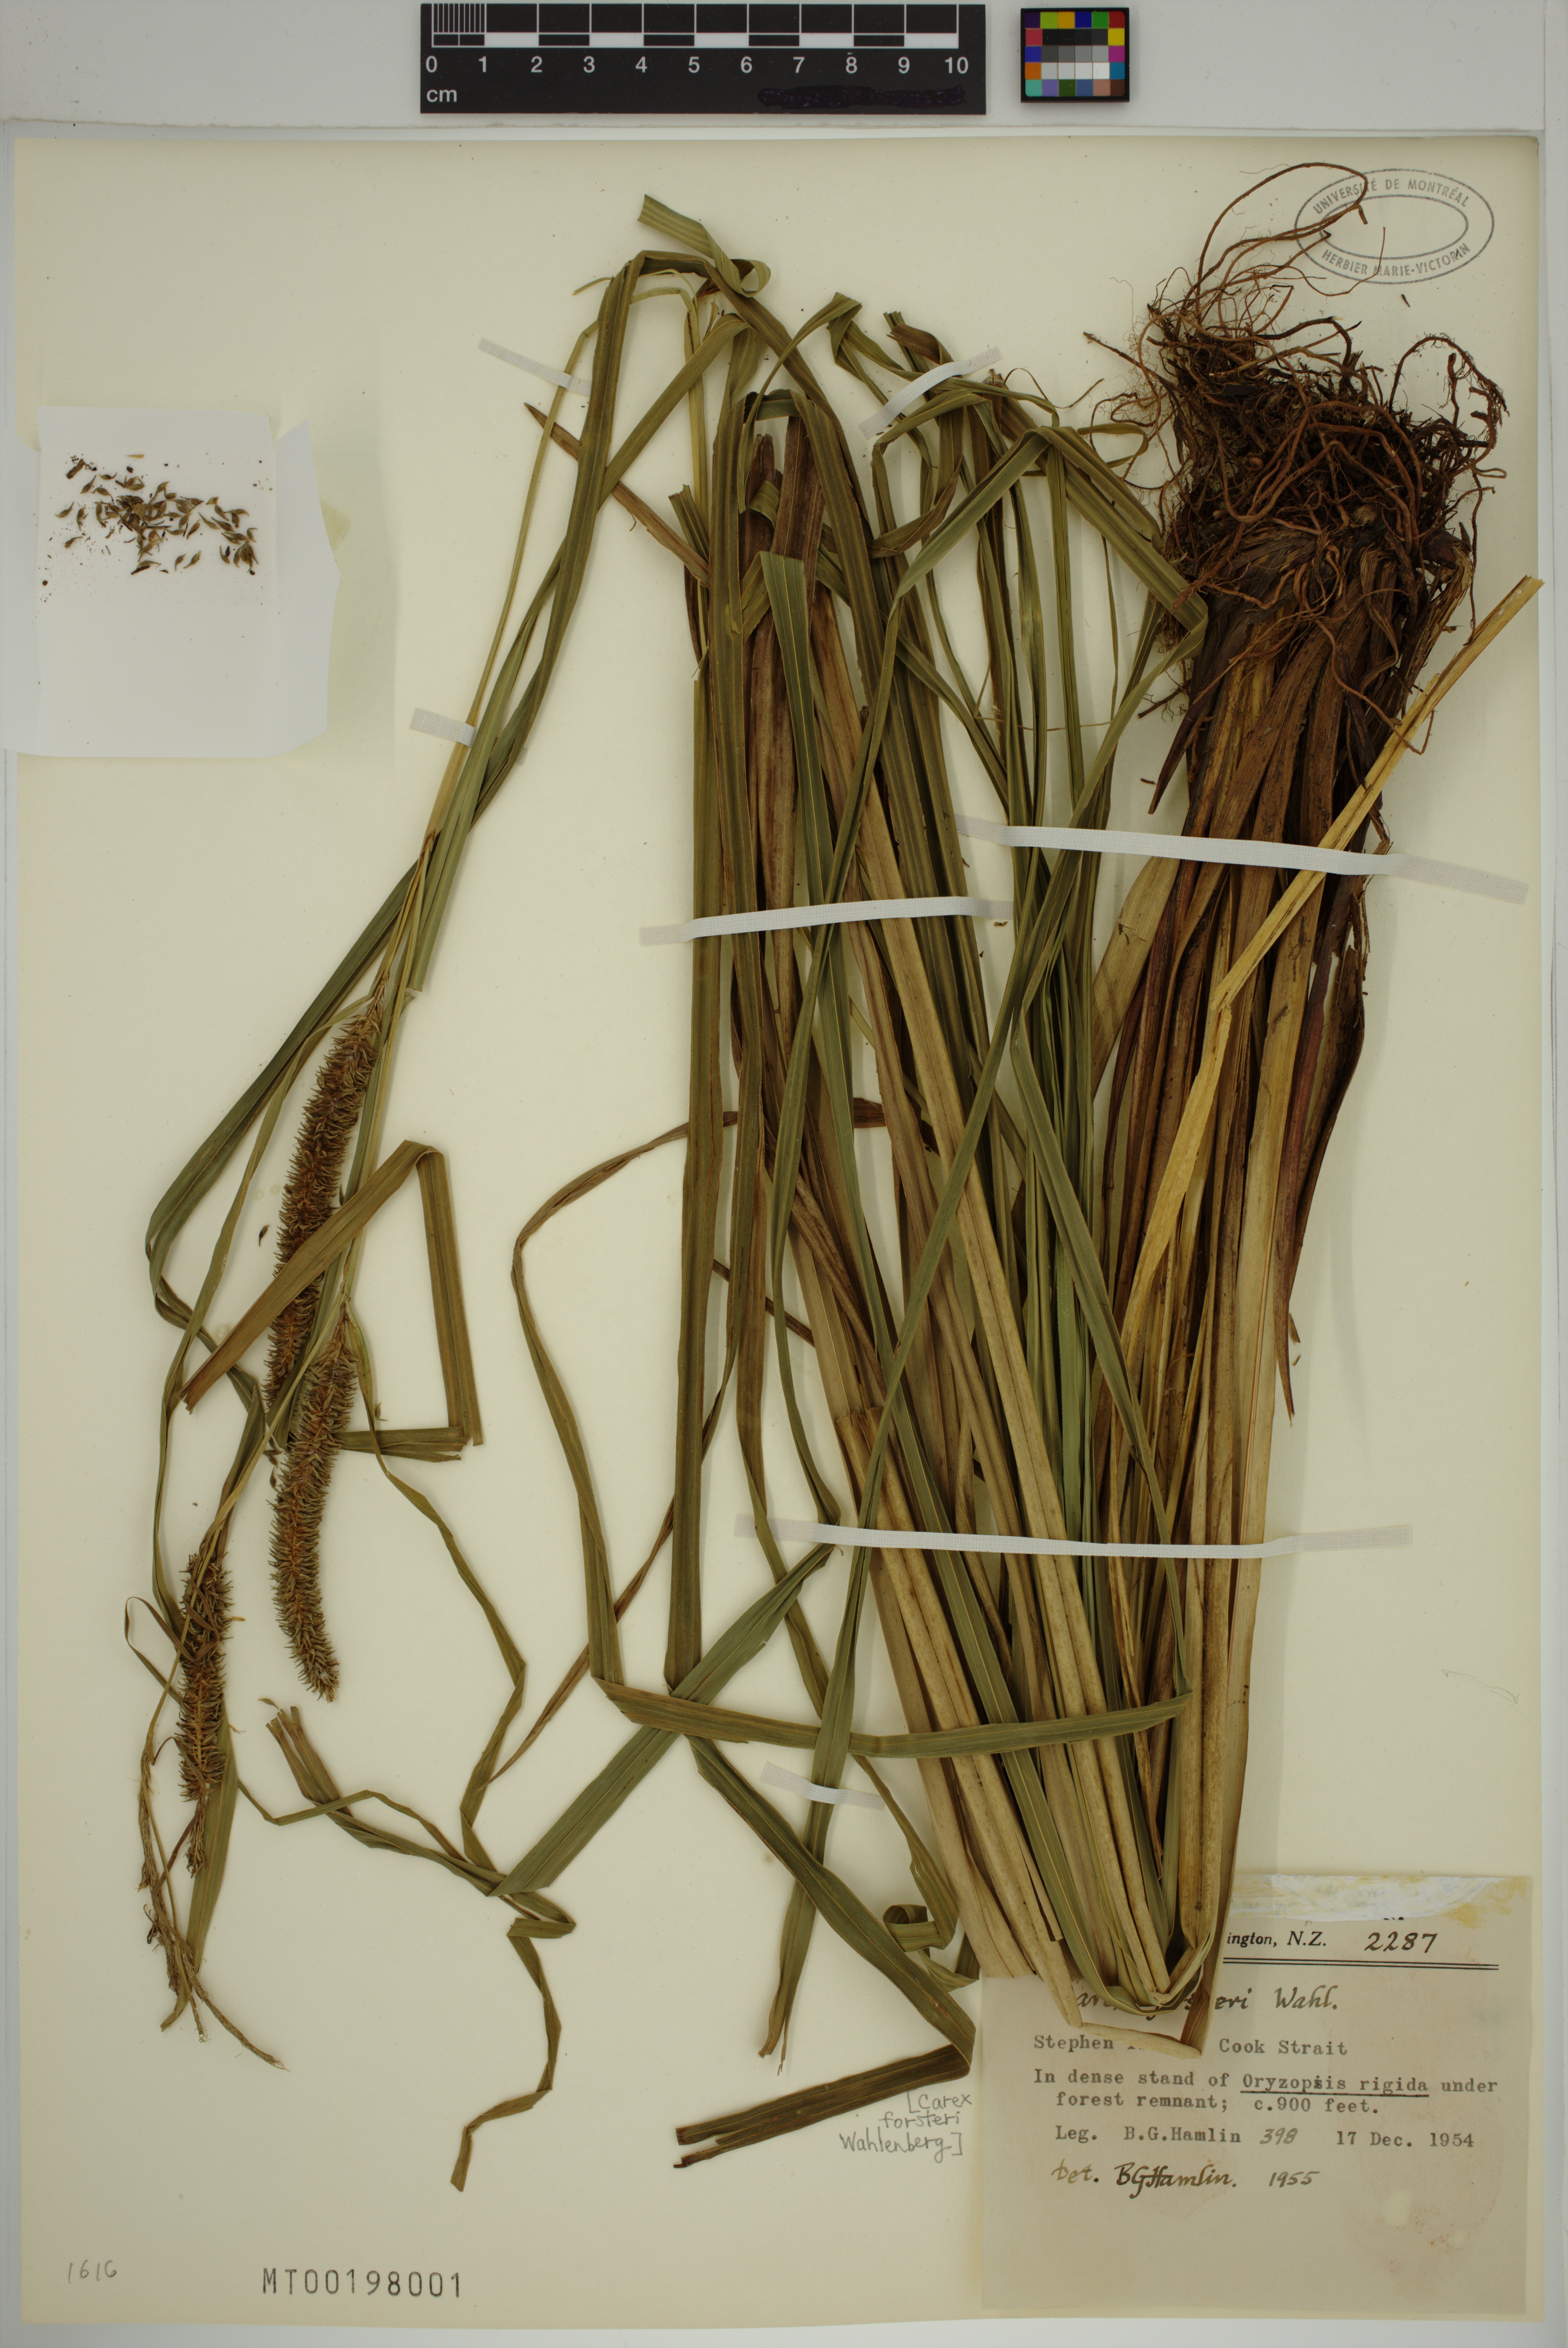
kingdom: Plantae
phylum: Tracheophyta
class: Liliopsida
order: Poales
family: Cyperaceae
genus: Carex
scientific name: Carex forsteri
